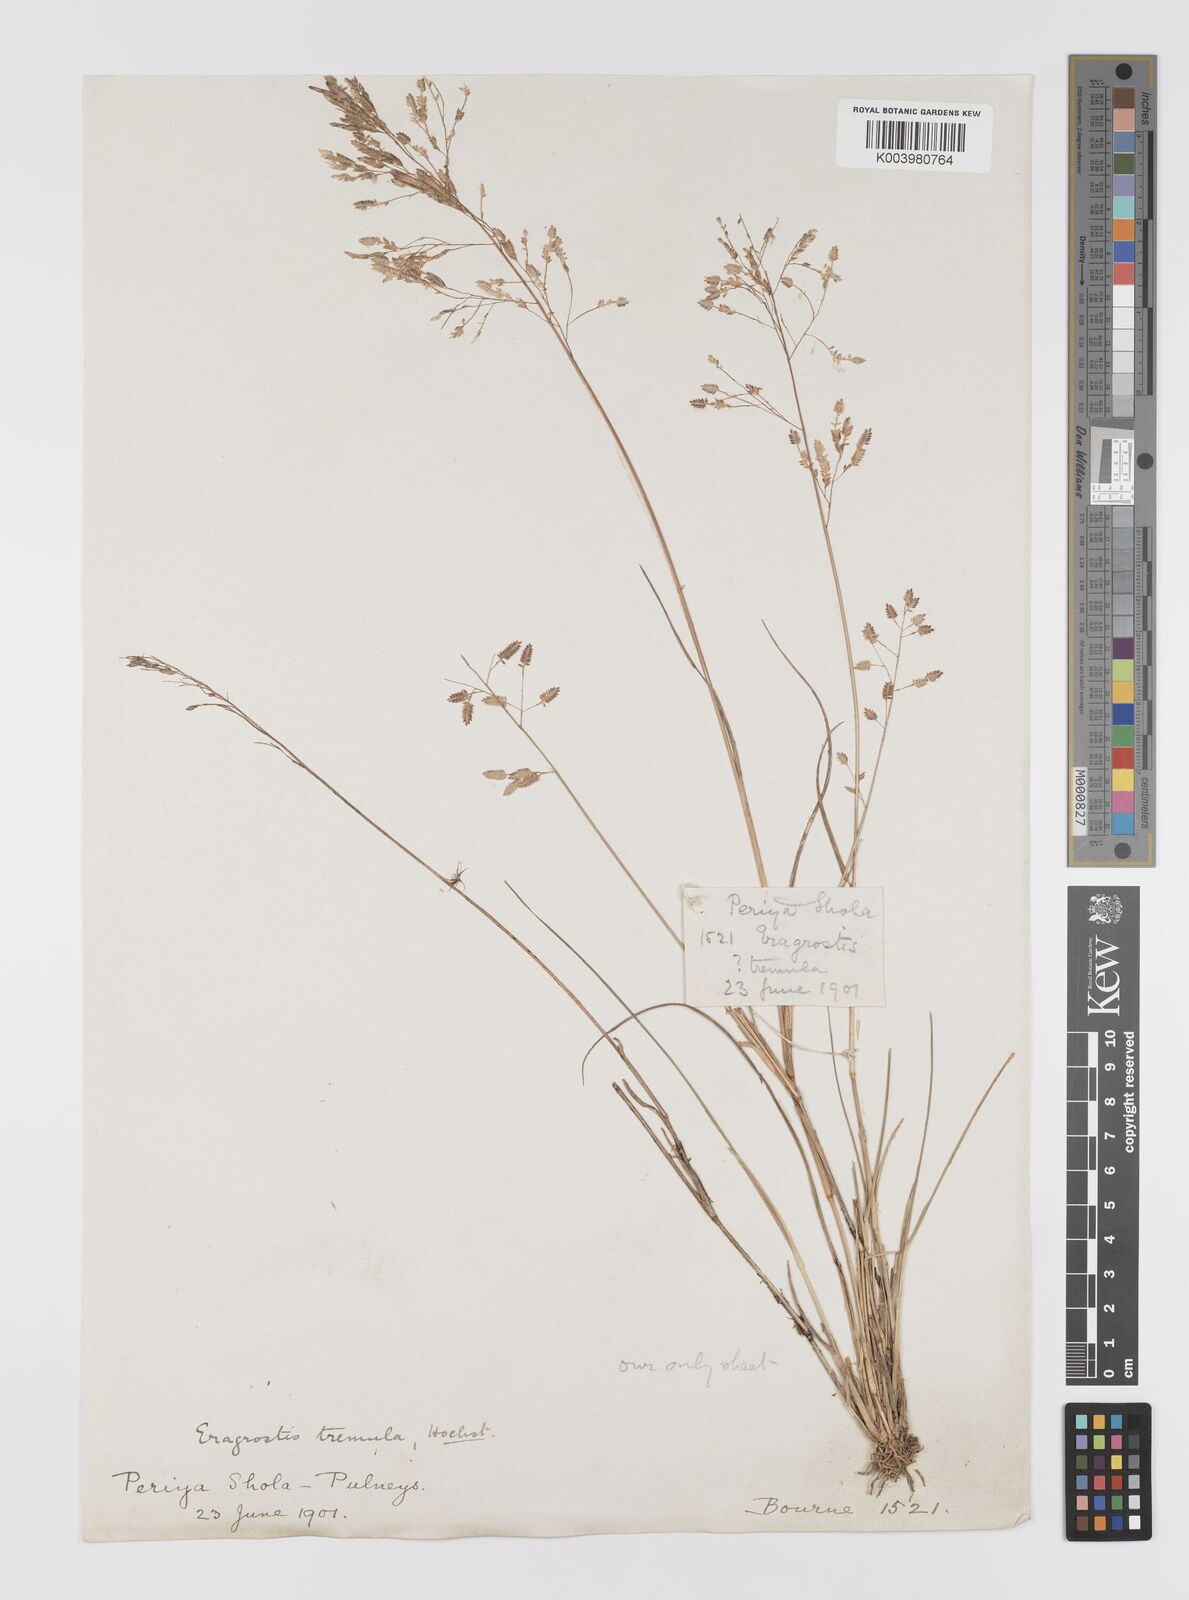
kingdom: Plantae
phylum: Tracheophyta
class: Liliopsida
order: Poales
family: Poaceae
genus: Eragrostis
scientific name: Eragrostis tremula
